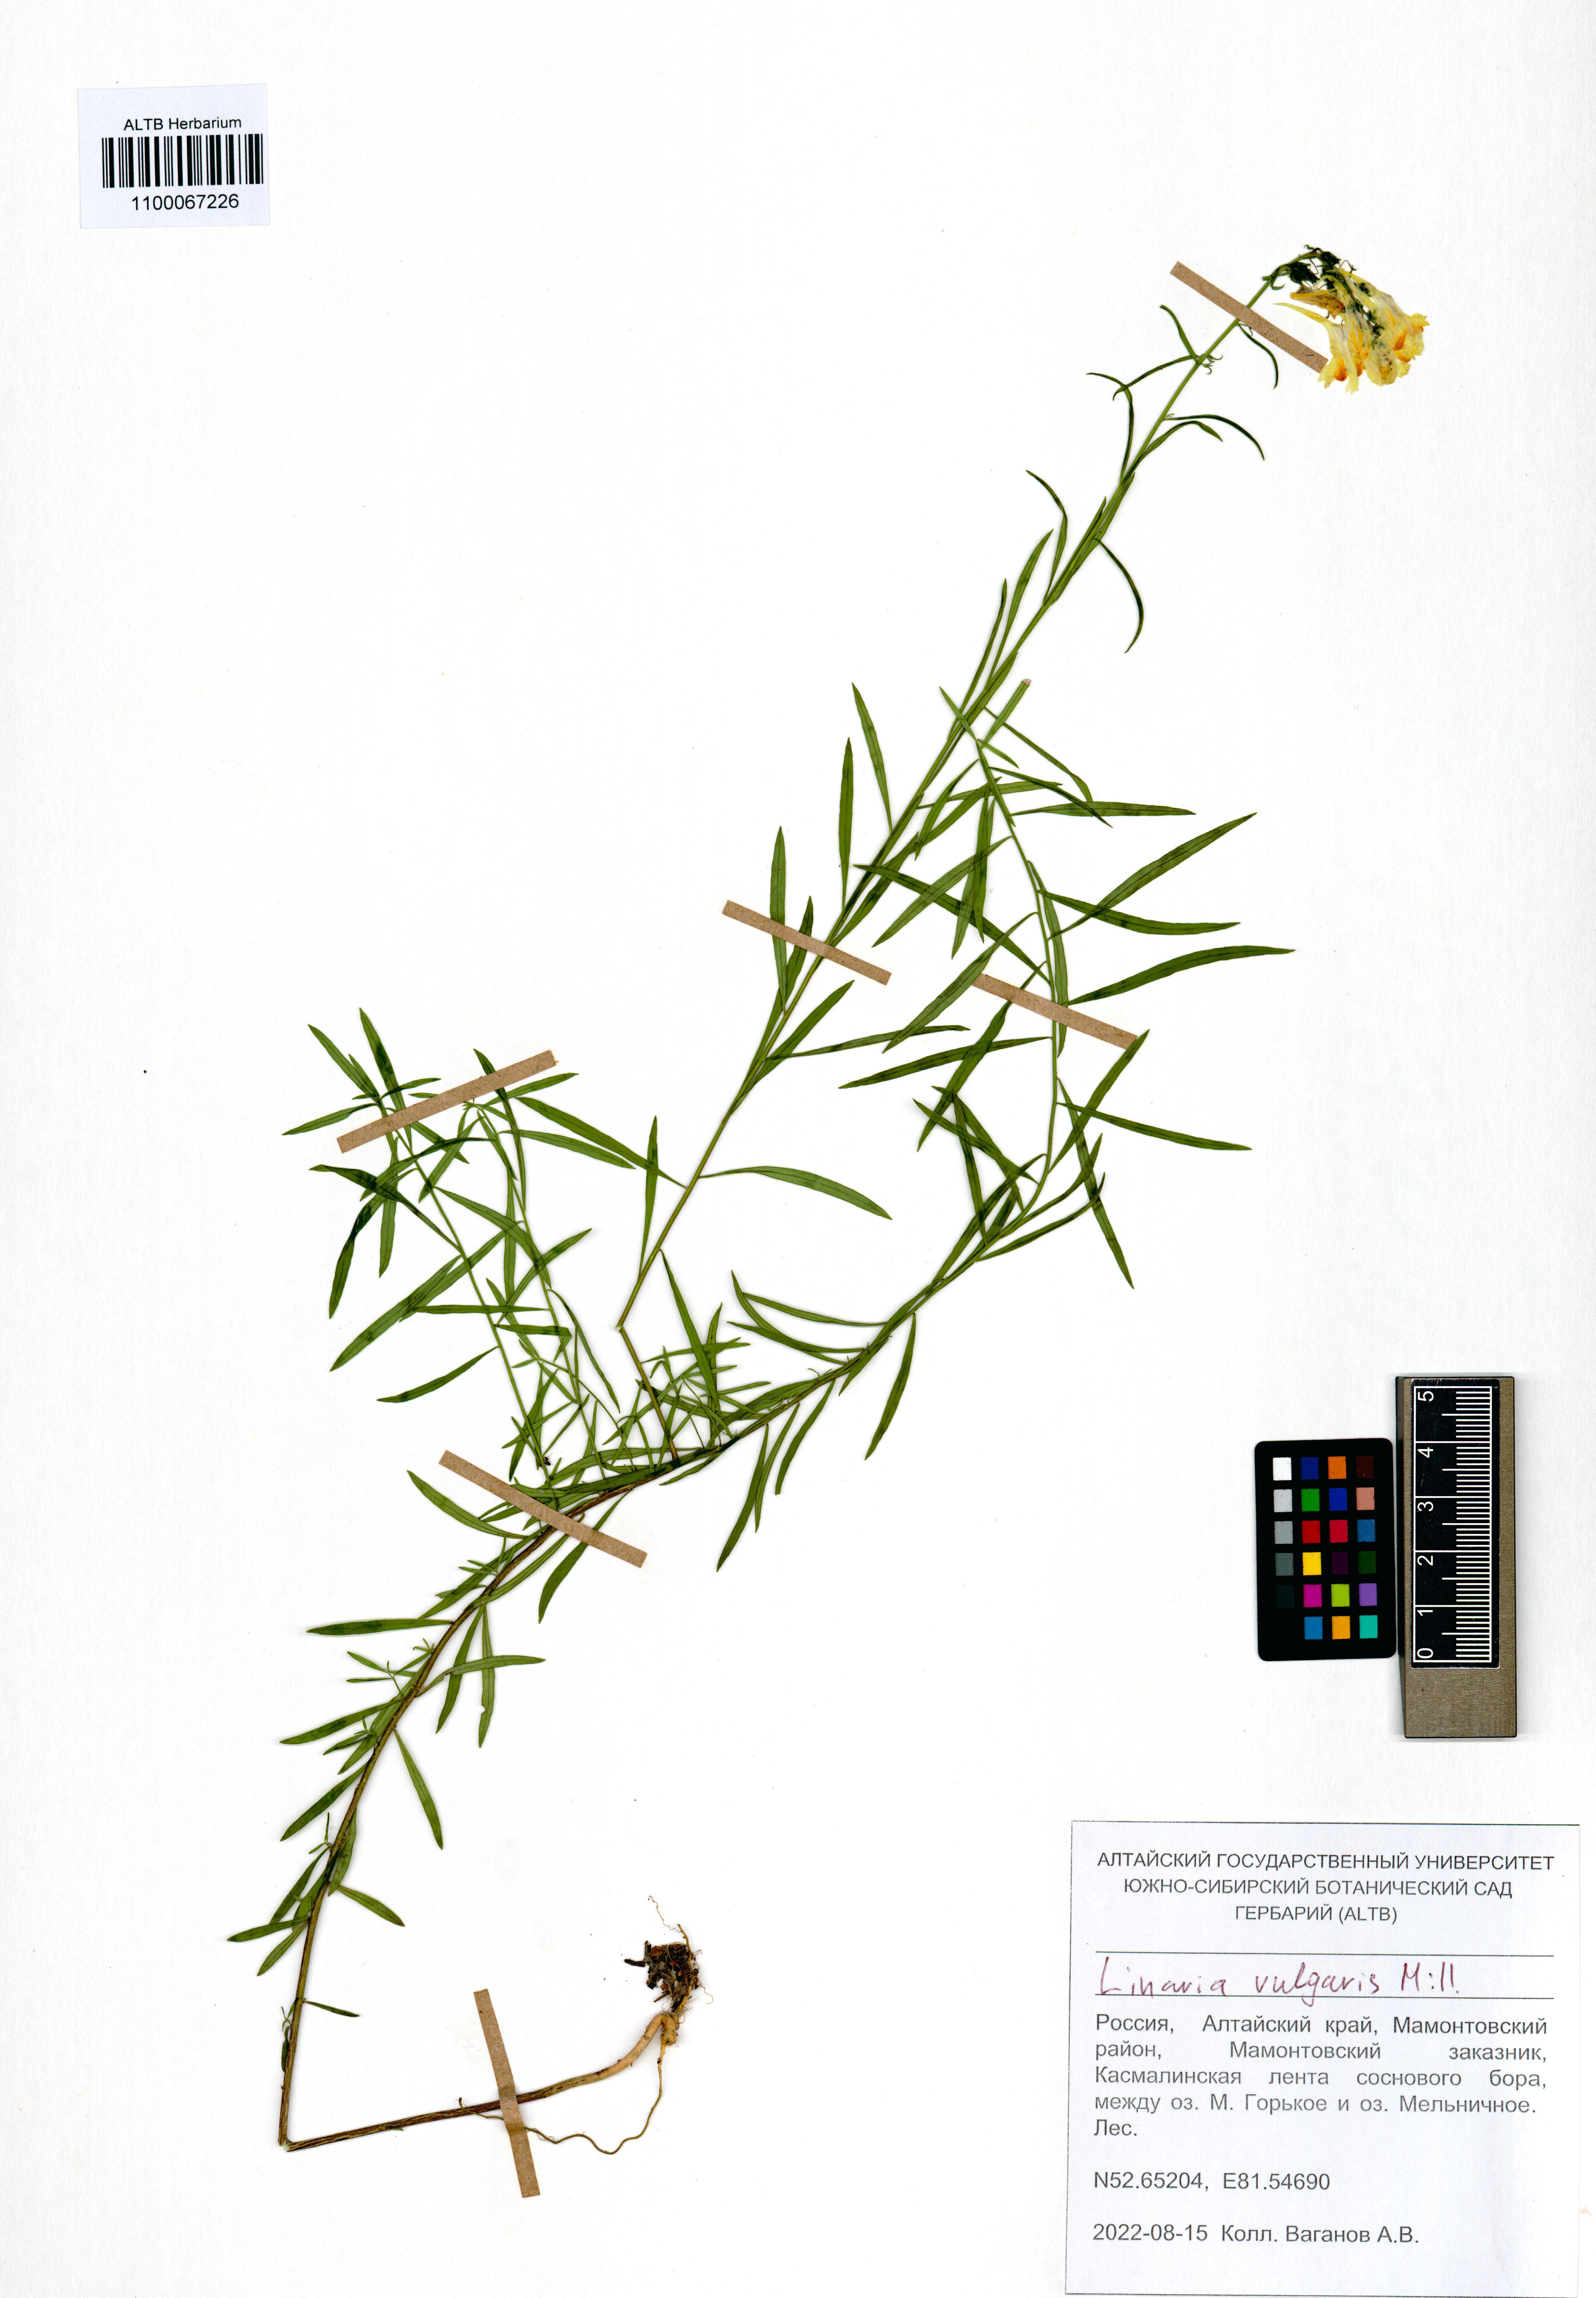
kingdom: Plantae
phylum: Tracheophyta
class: Magnoliopsida
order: Lamiales
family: Plantaginaceae
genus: Linaria
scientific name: Linaria vulgaris
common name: Butter and eggs
